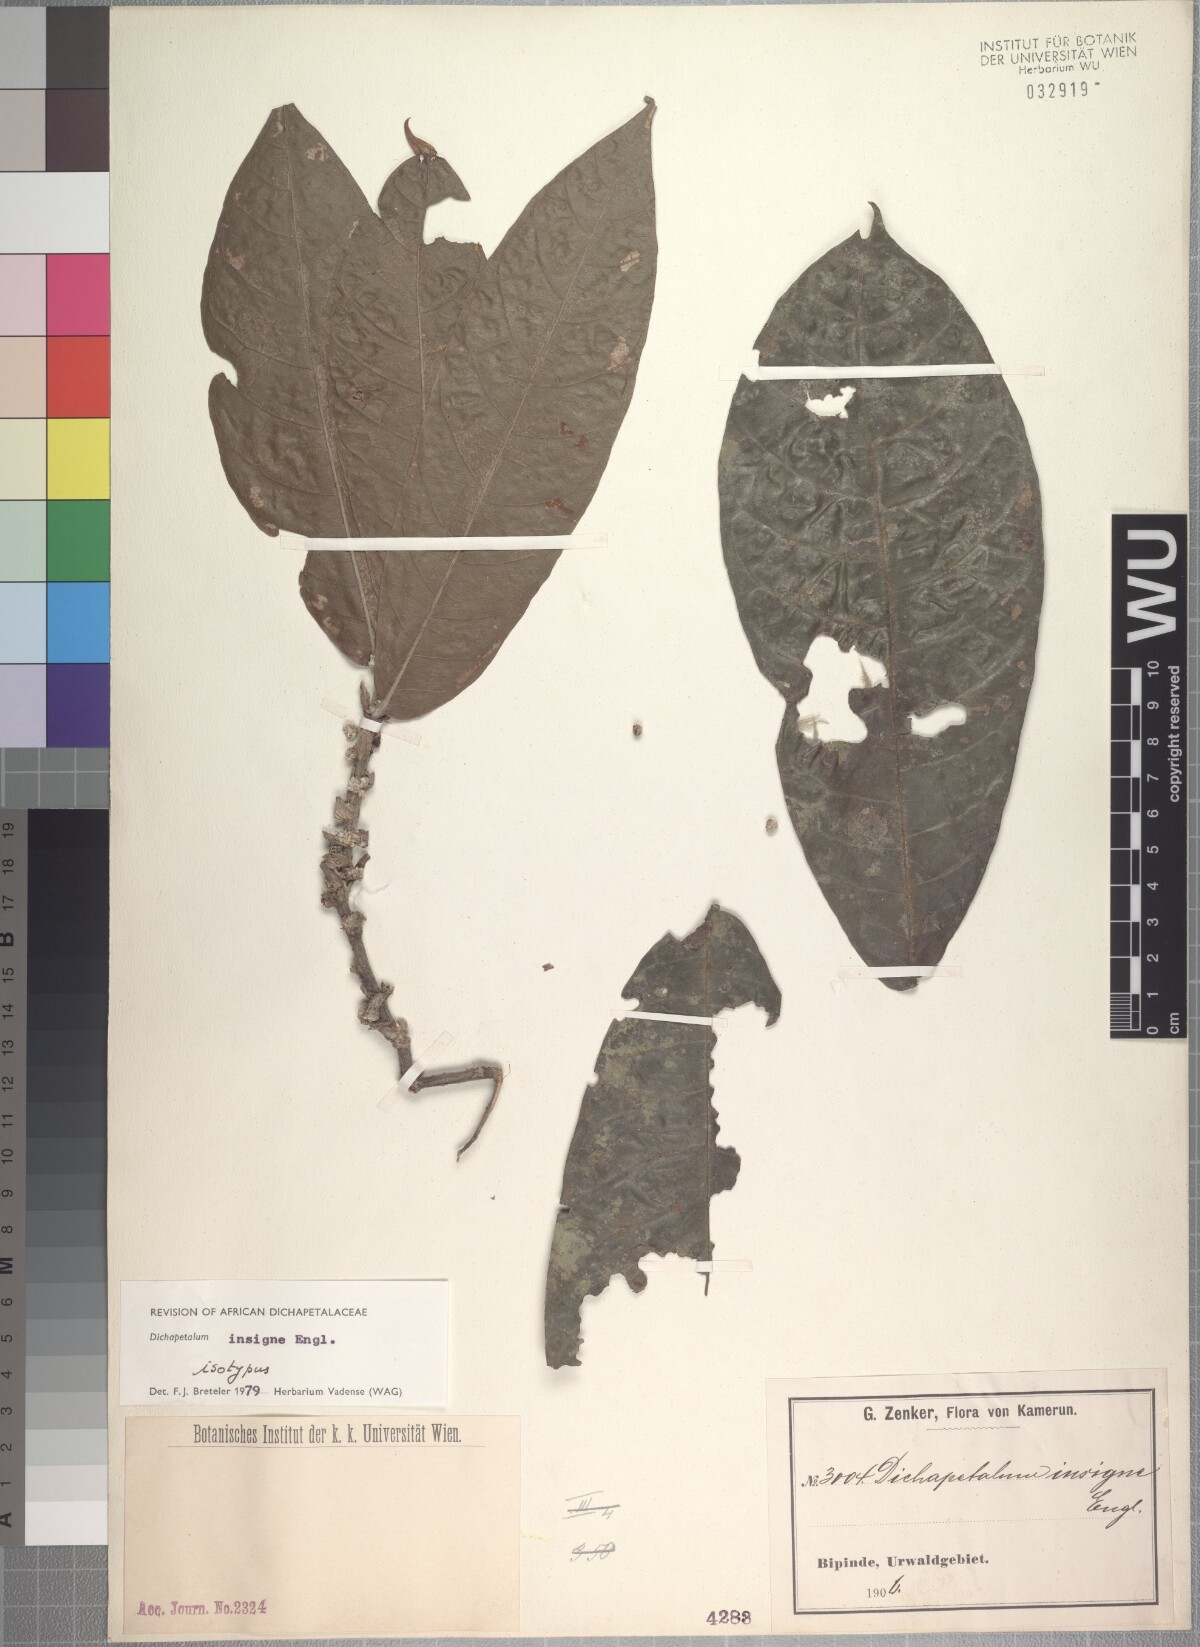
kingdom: Plantae
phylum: Tracheophyta
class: Magnoliopsida
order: Malpighiales
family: Dichapetalaceae
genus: Dichapetalum
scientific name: Dichapetalum insigne
